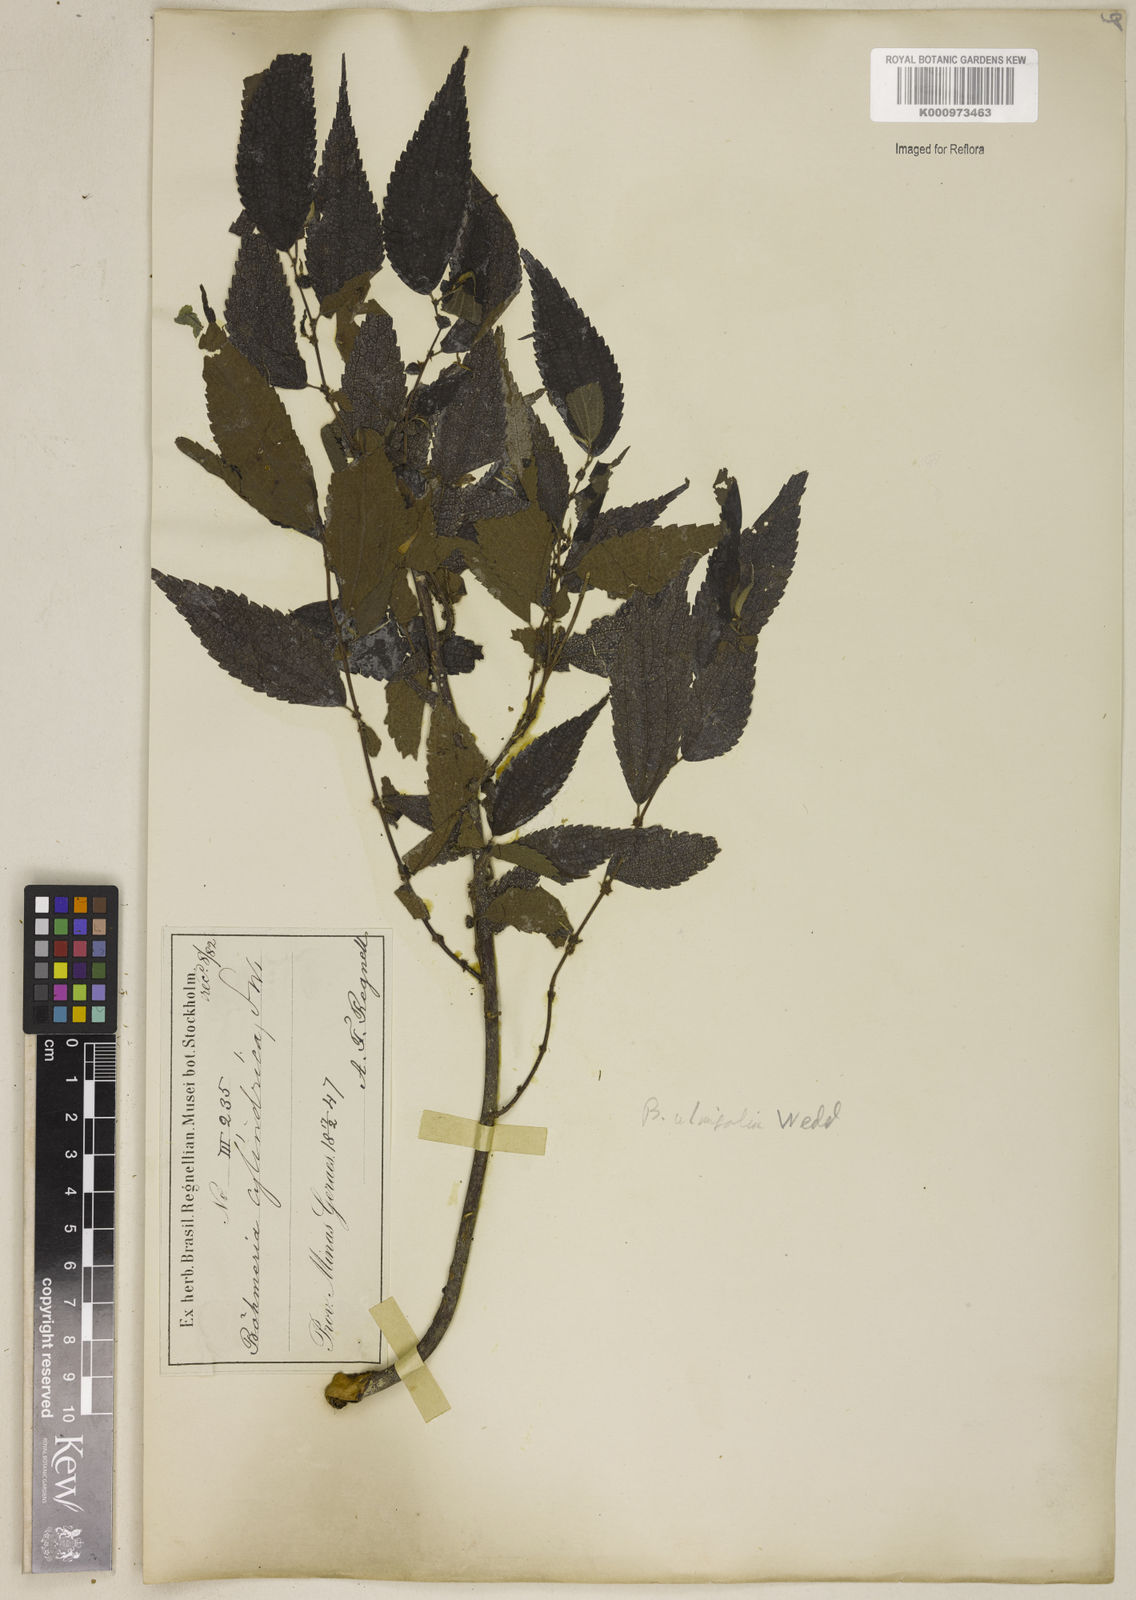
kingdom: Plantae
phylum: Tracheophyta
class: Magnoliopsida
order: Rosales
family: Urticaceae
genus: Boehmeria
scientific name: Boehmeria ulmifolia
